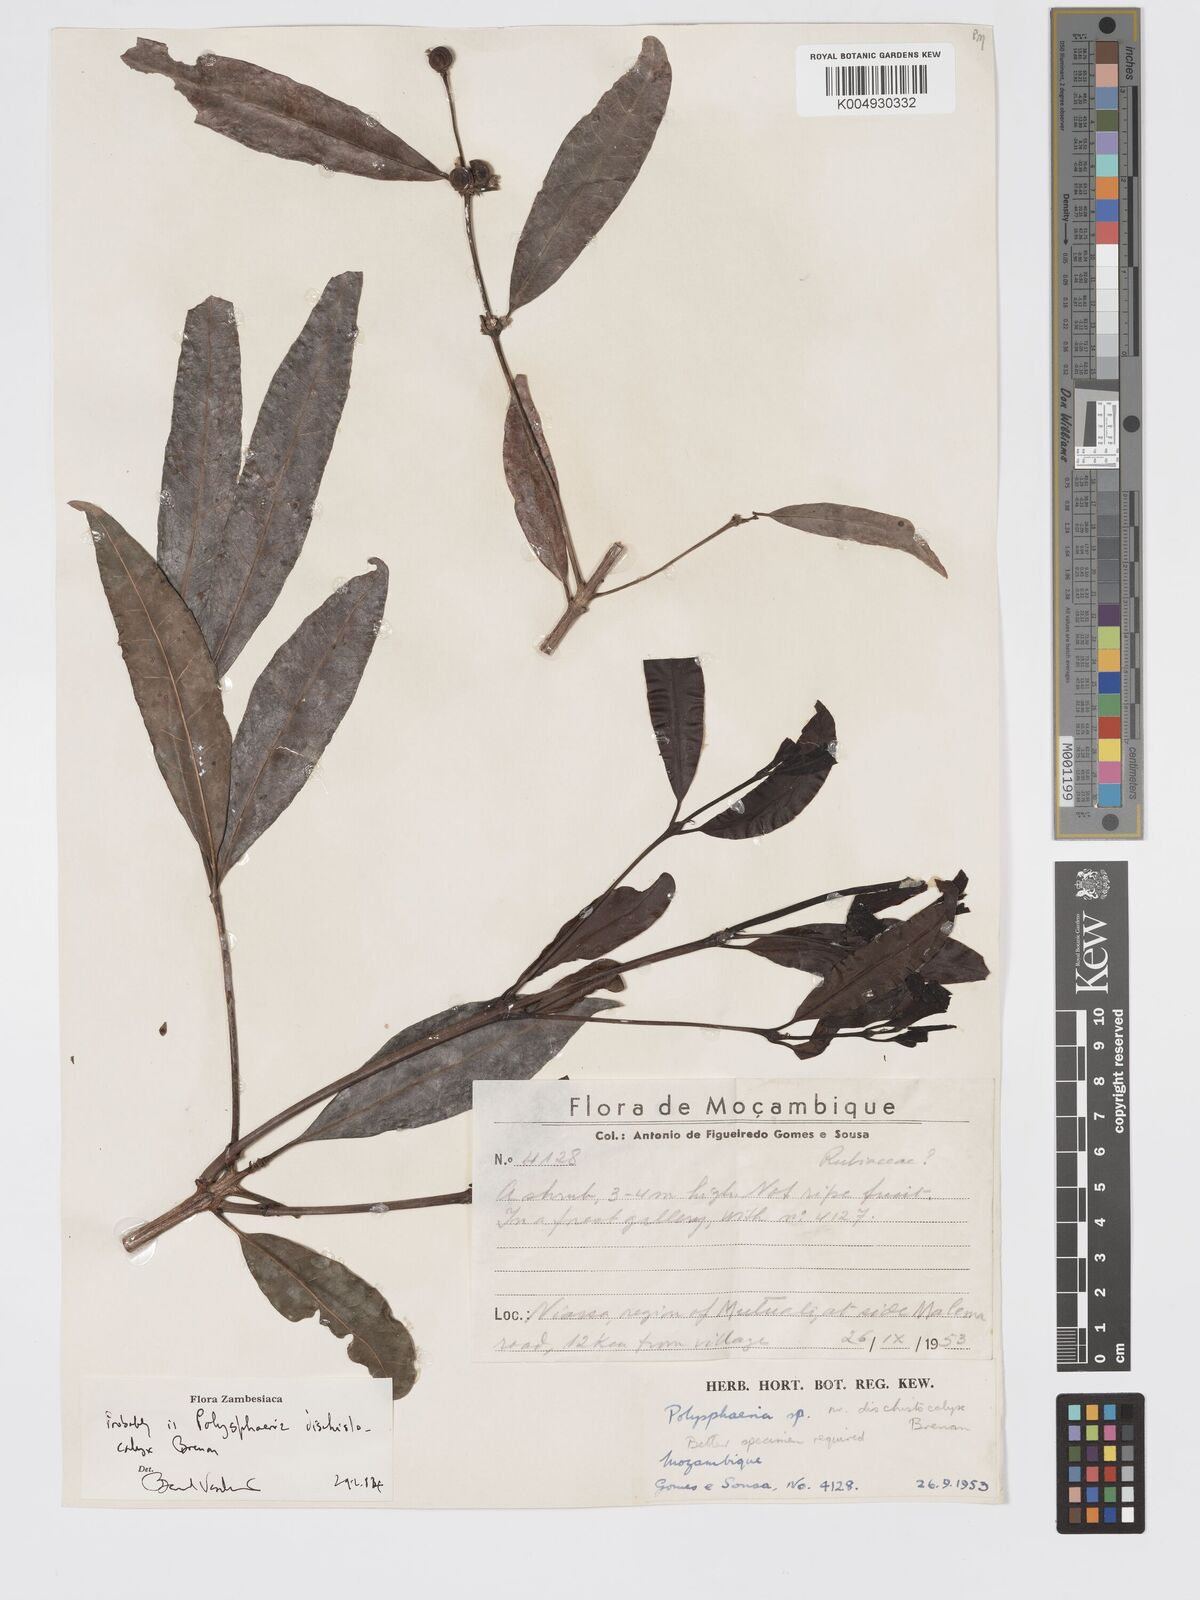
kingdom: Plantae
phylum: Tracheophyta
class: Magnoliopsida
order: Gentianales
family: Rubiaceae
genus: Polysphaeria
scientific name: Polysphaeria dischistocalyx
